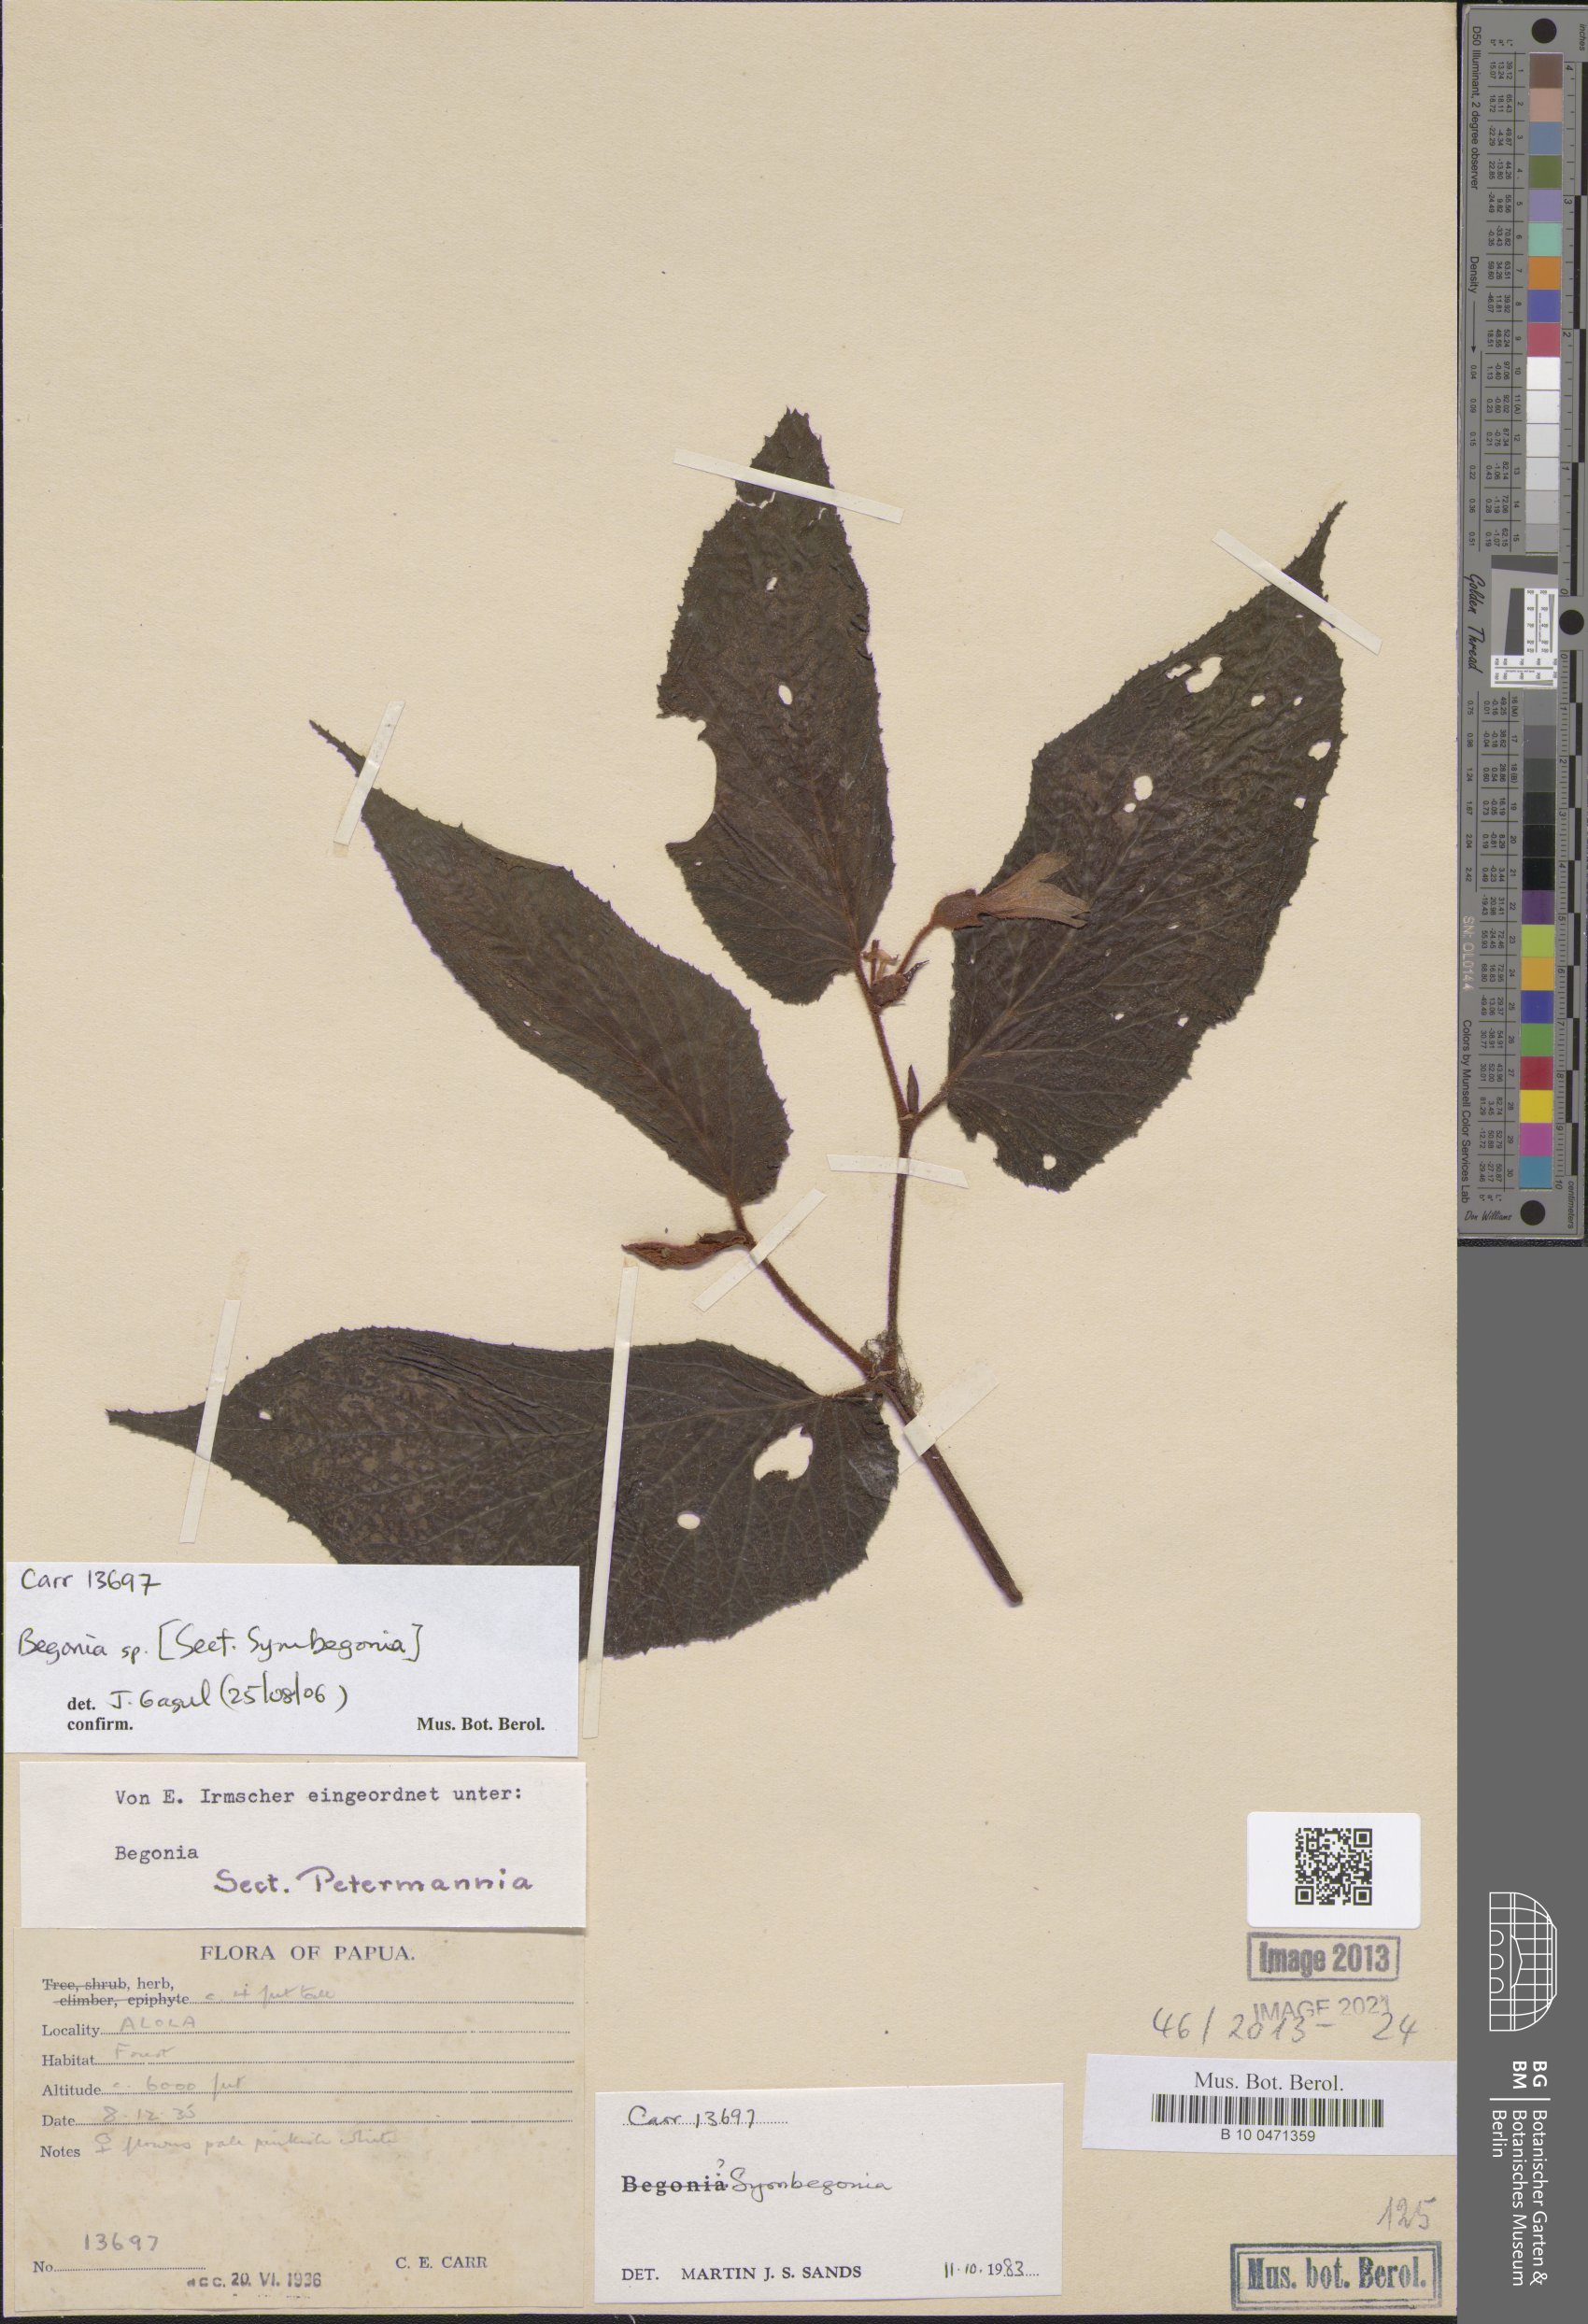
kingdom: Plantae
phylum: Tracheophyta
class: Magnoliopsida
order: Cucurbitales
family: Begoniaceae
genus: Begonia
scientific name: Begonia
